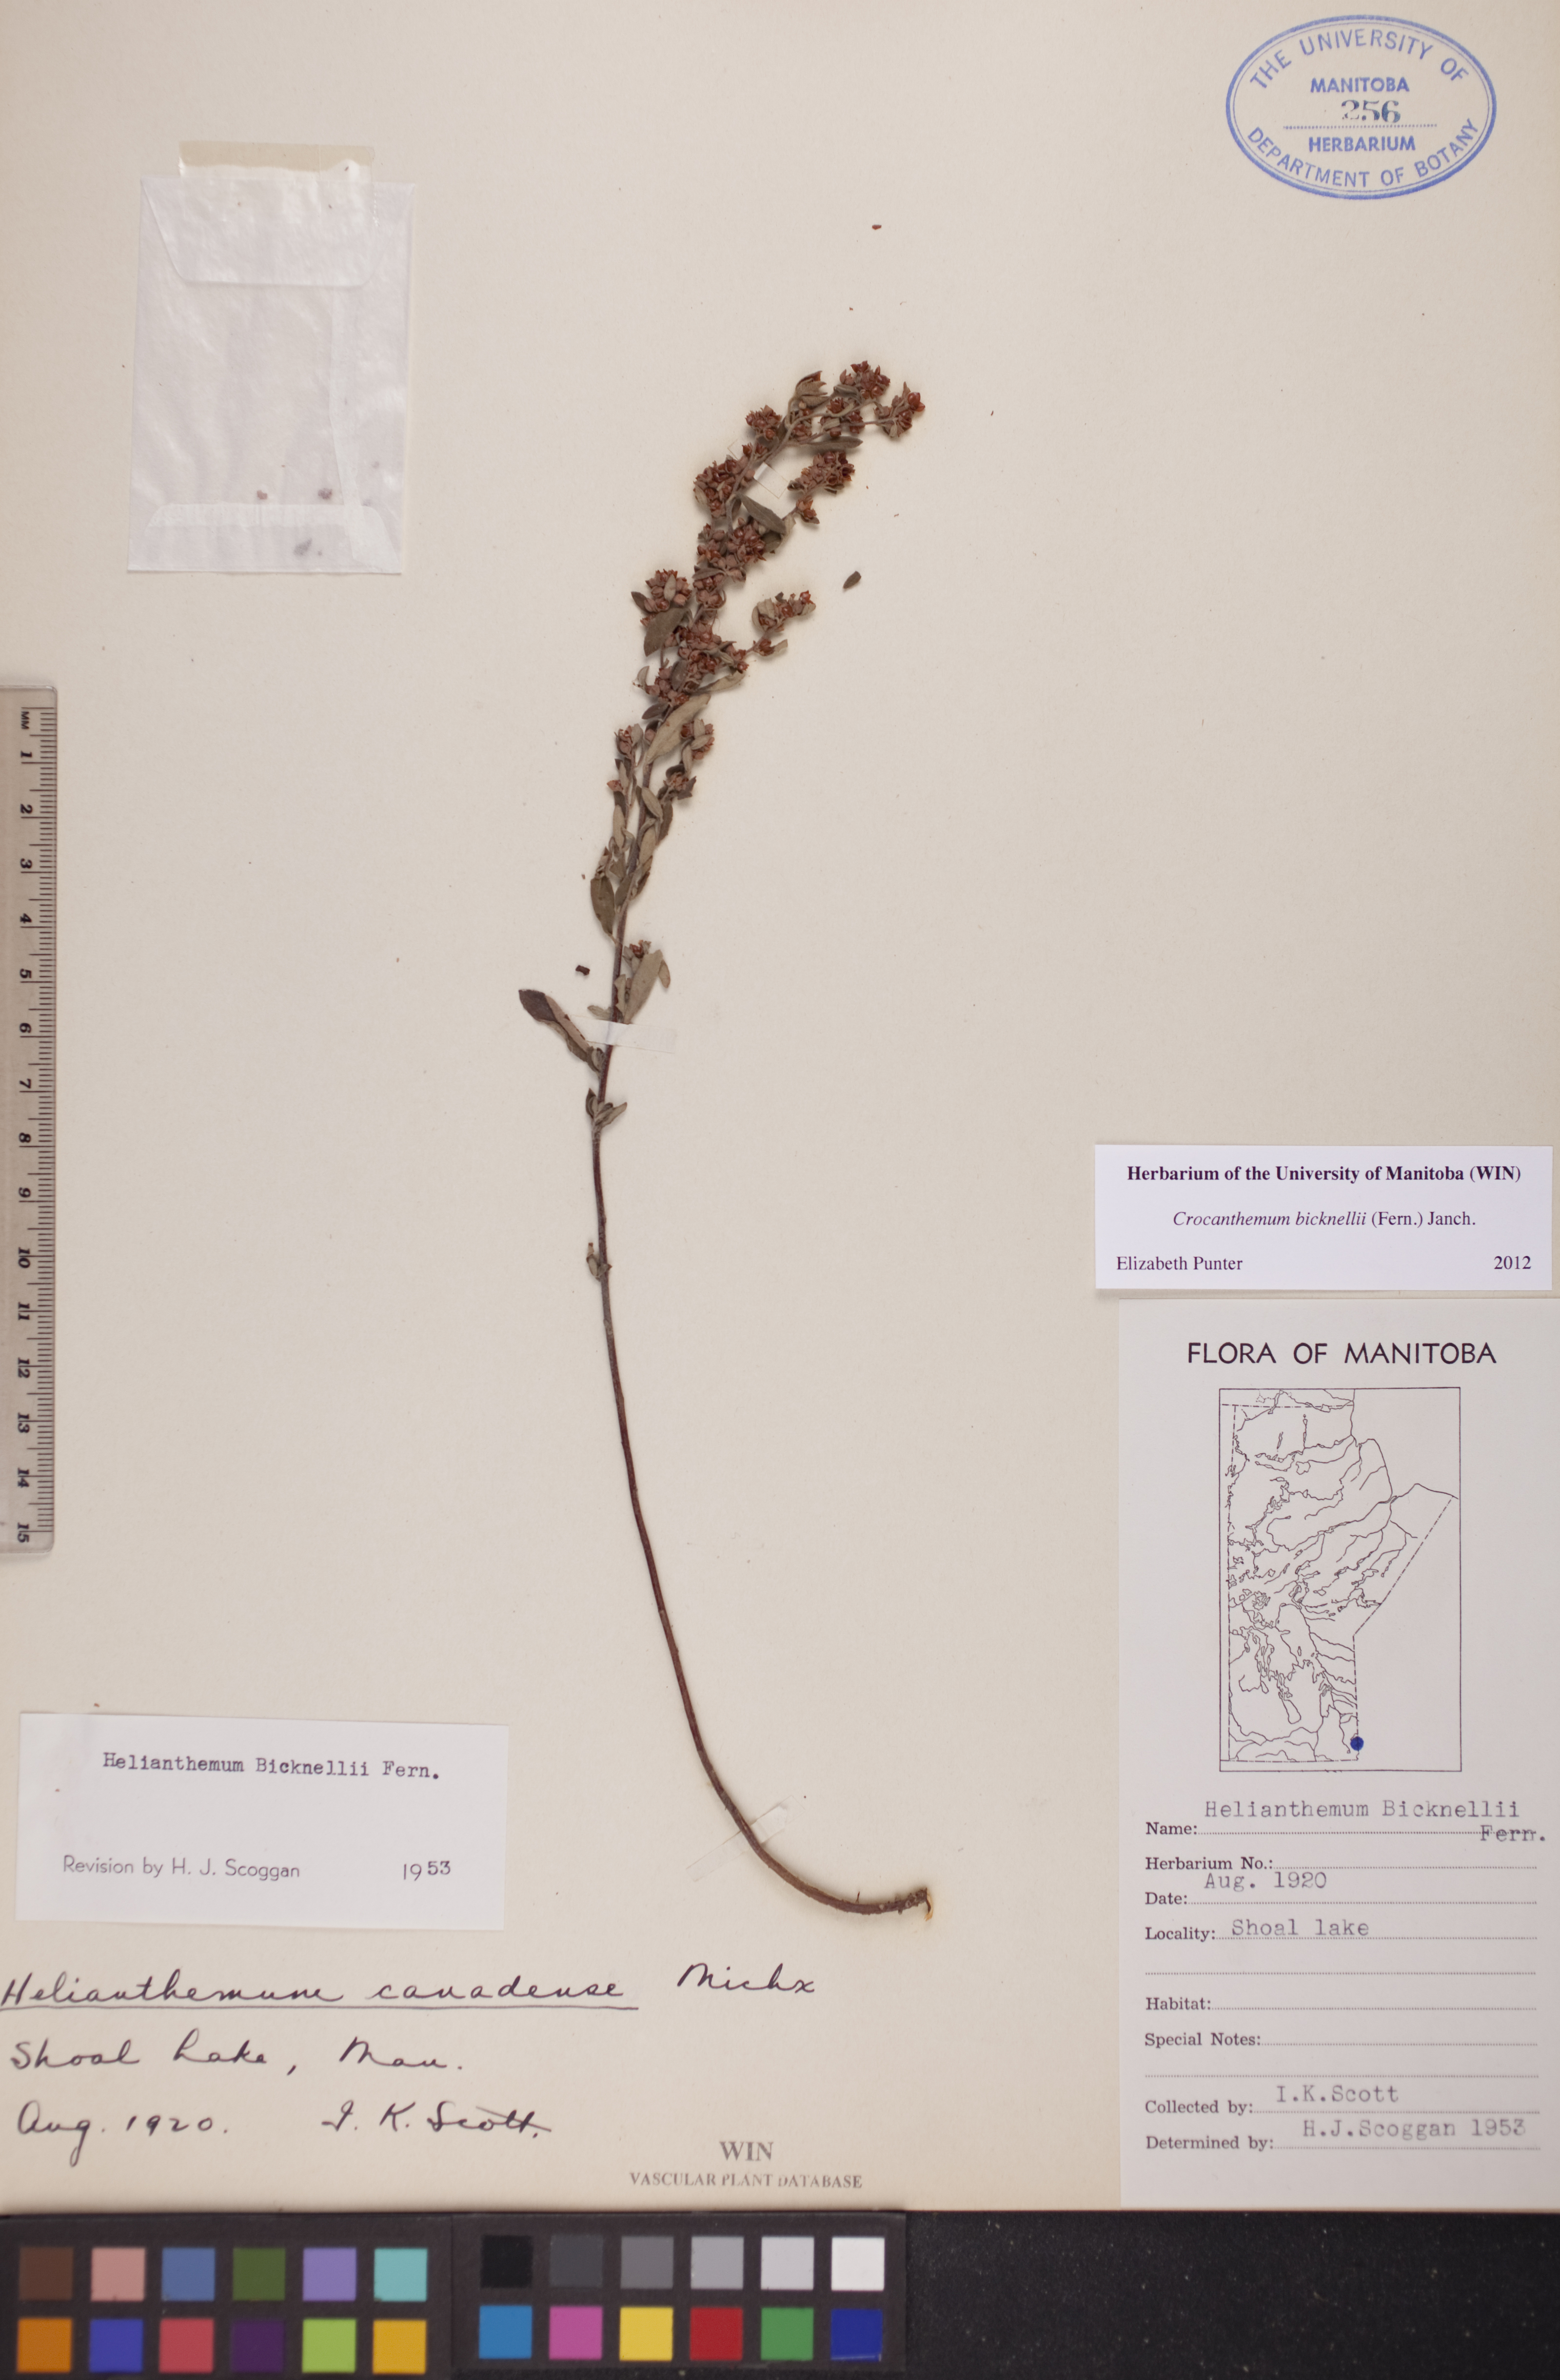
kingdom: Plantae
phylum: Tracheophyta
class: Magnoliopsida
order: Malvales
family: Cistaceae
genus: Crocanthemum
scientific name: Crocanthemum bicknellii
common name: Hoary frostweed
